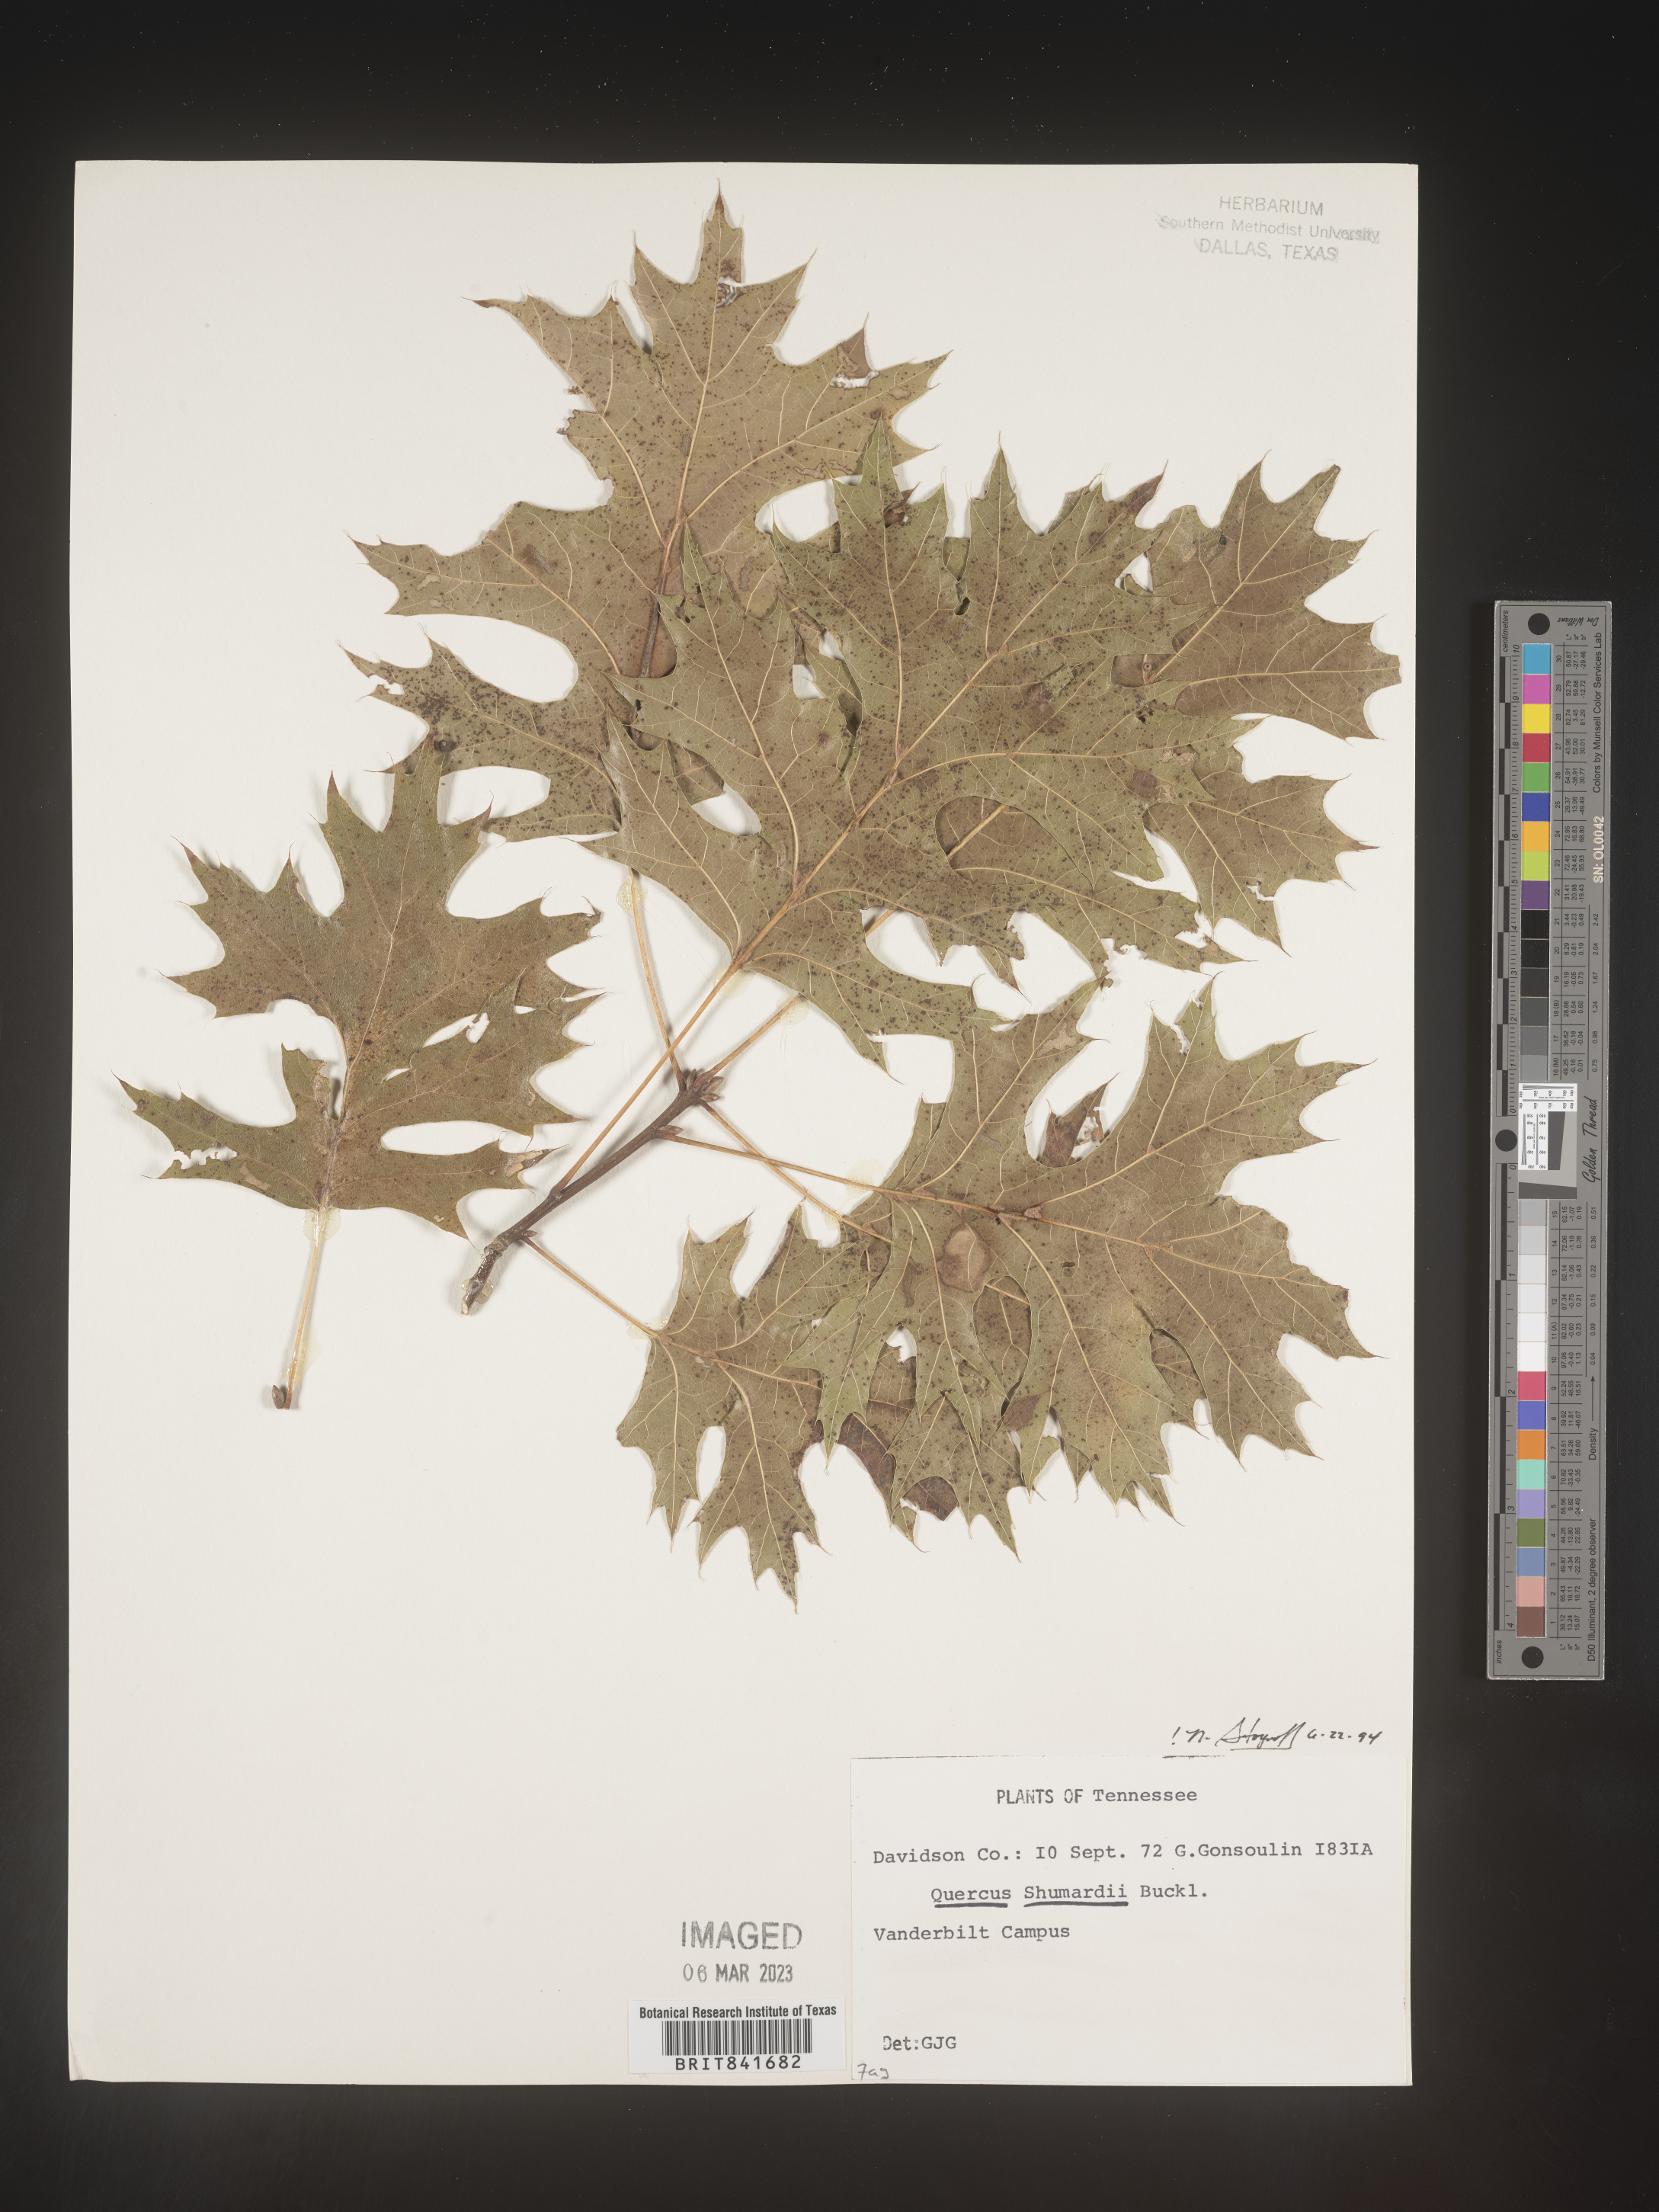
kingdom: Plantae
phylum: Tracheophyta
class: Magnoliopsida
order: Fagales
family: Fagaceae
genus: Quercus
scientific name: Quercus shumardii
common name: Shumard oak
